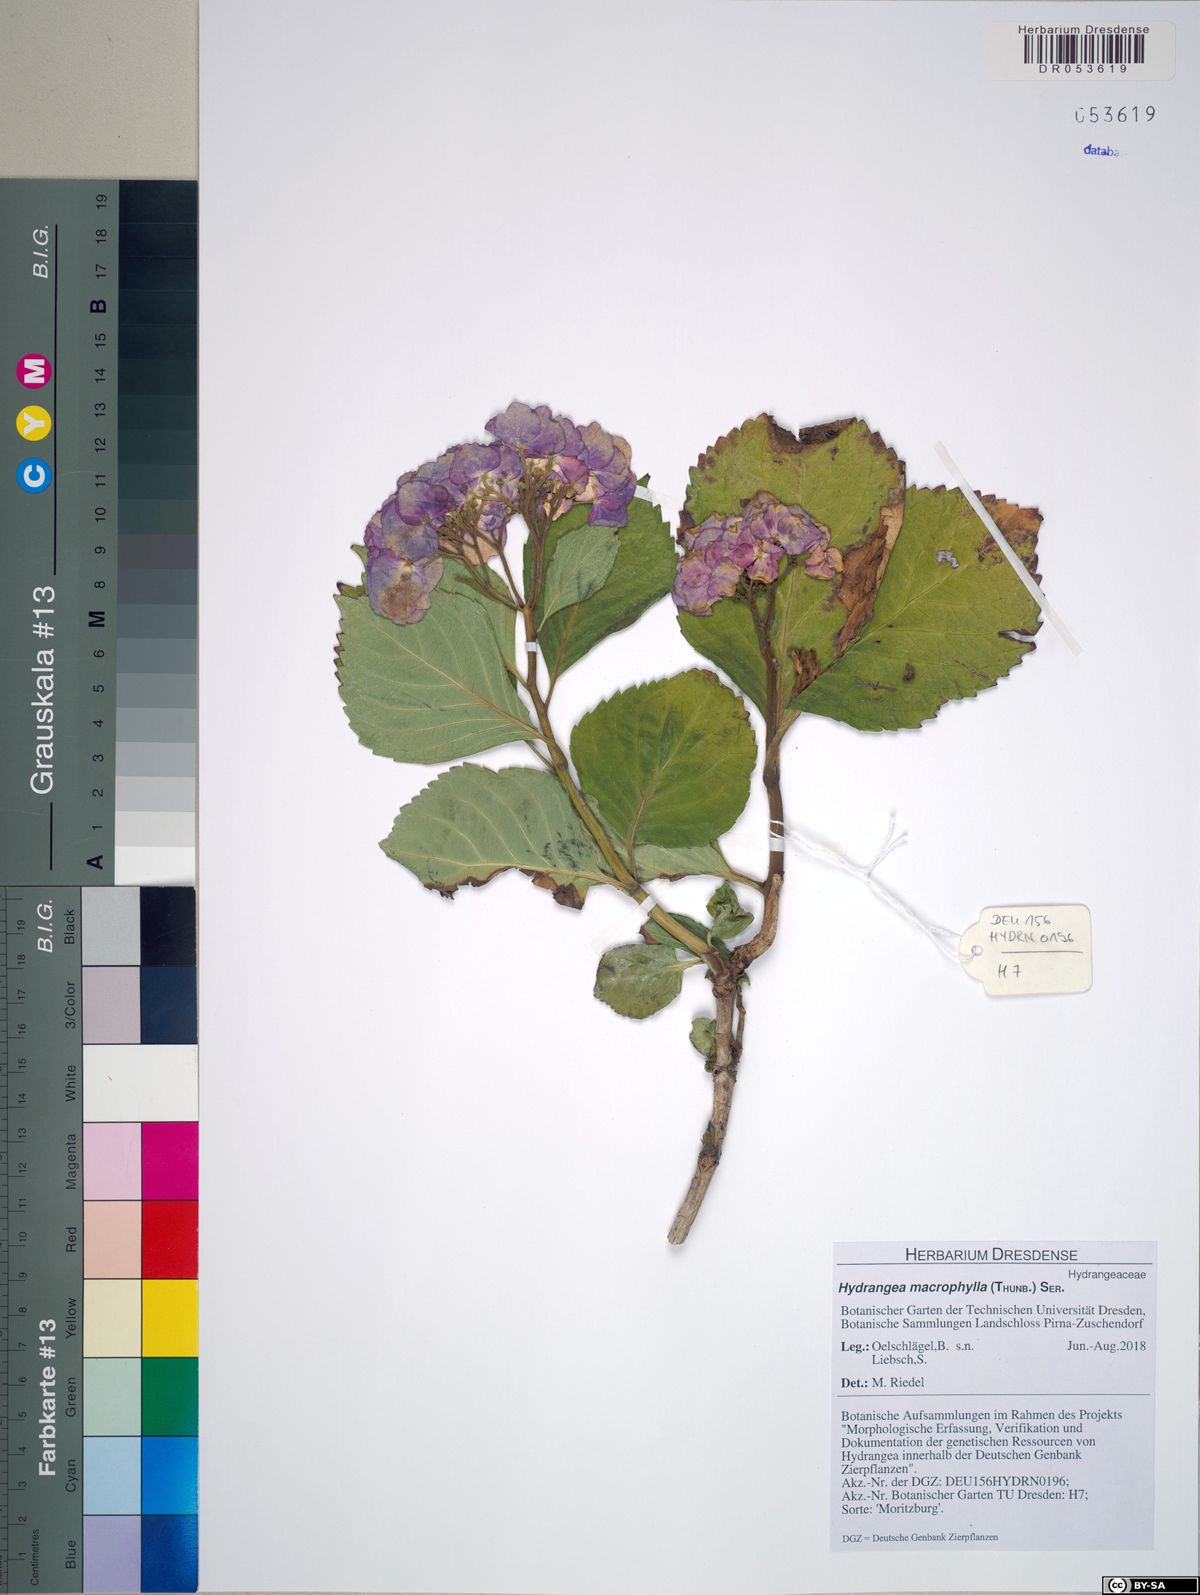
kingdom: Plantae
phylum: Tracheophyta
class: Magnoliopsida
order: Cornales
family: Hydrangeaceae
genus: Hydrangea
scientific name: Hydrangea macrophylla
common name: Hydrangea
